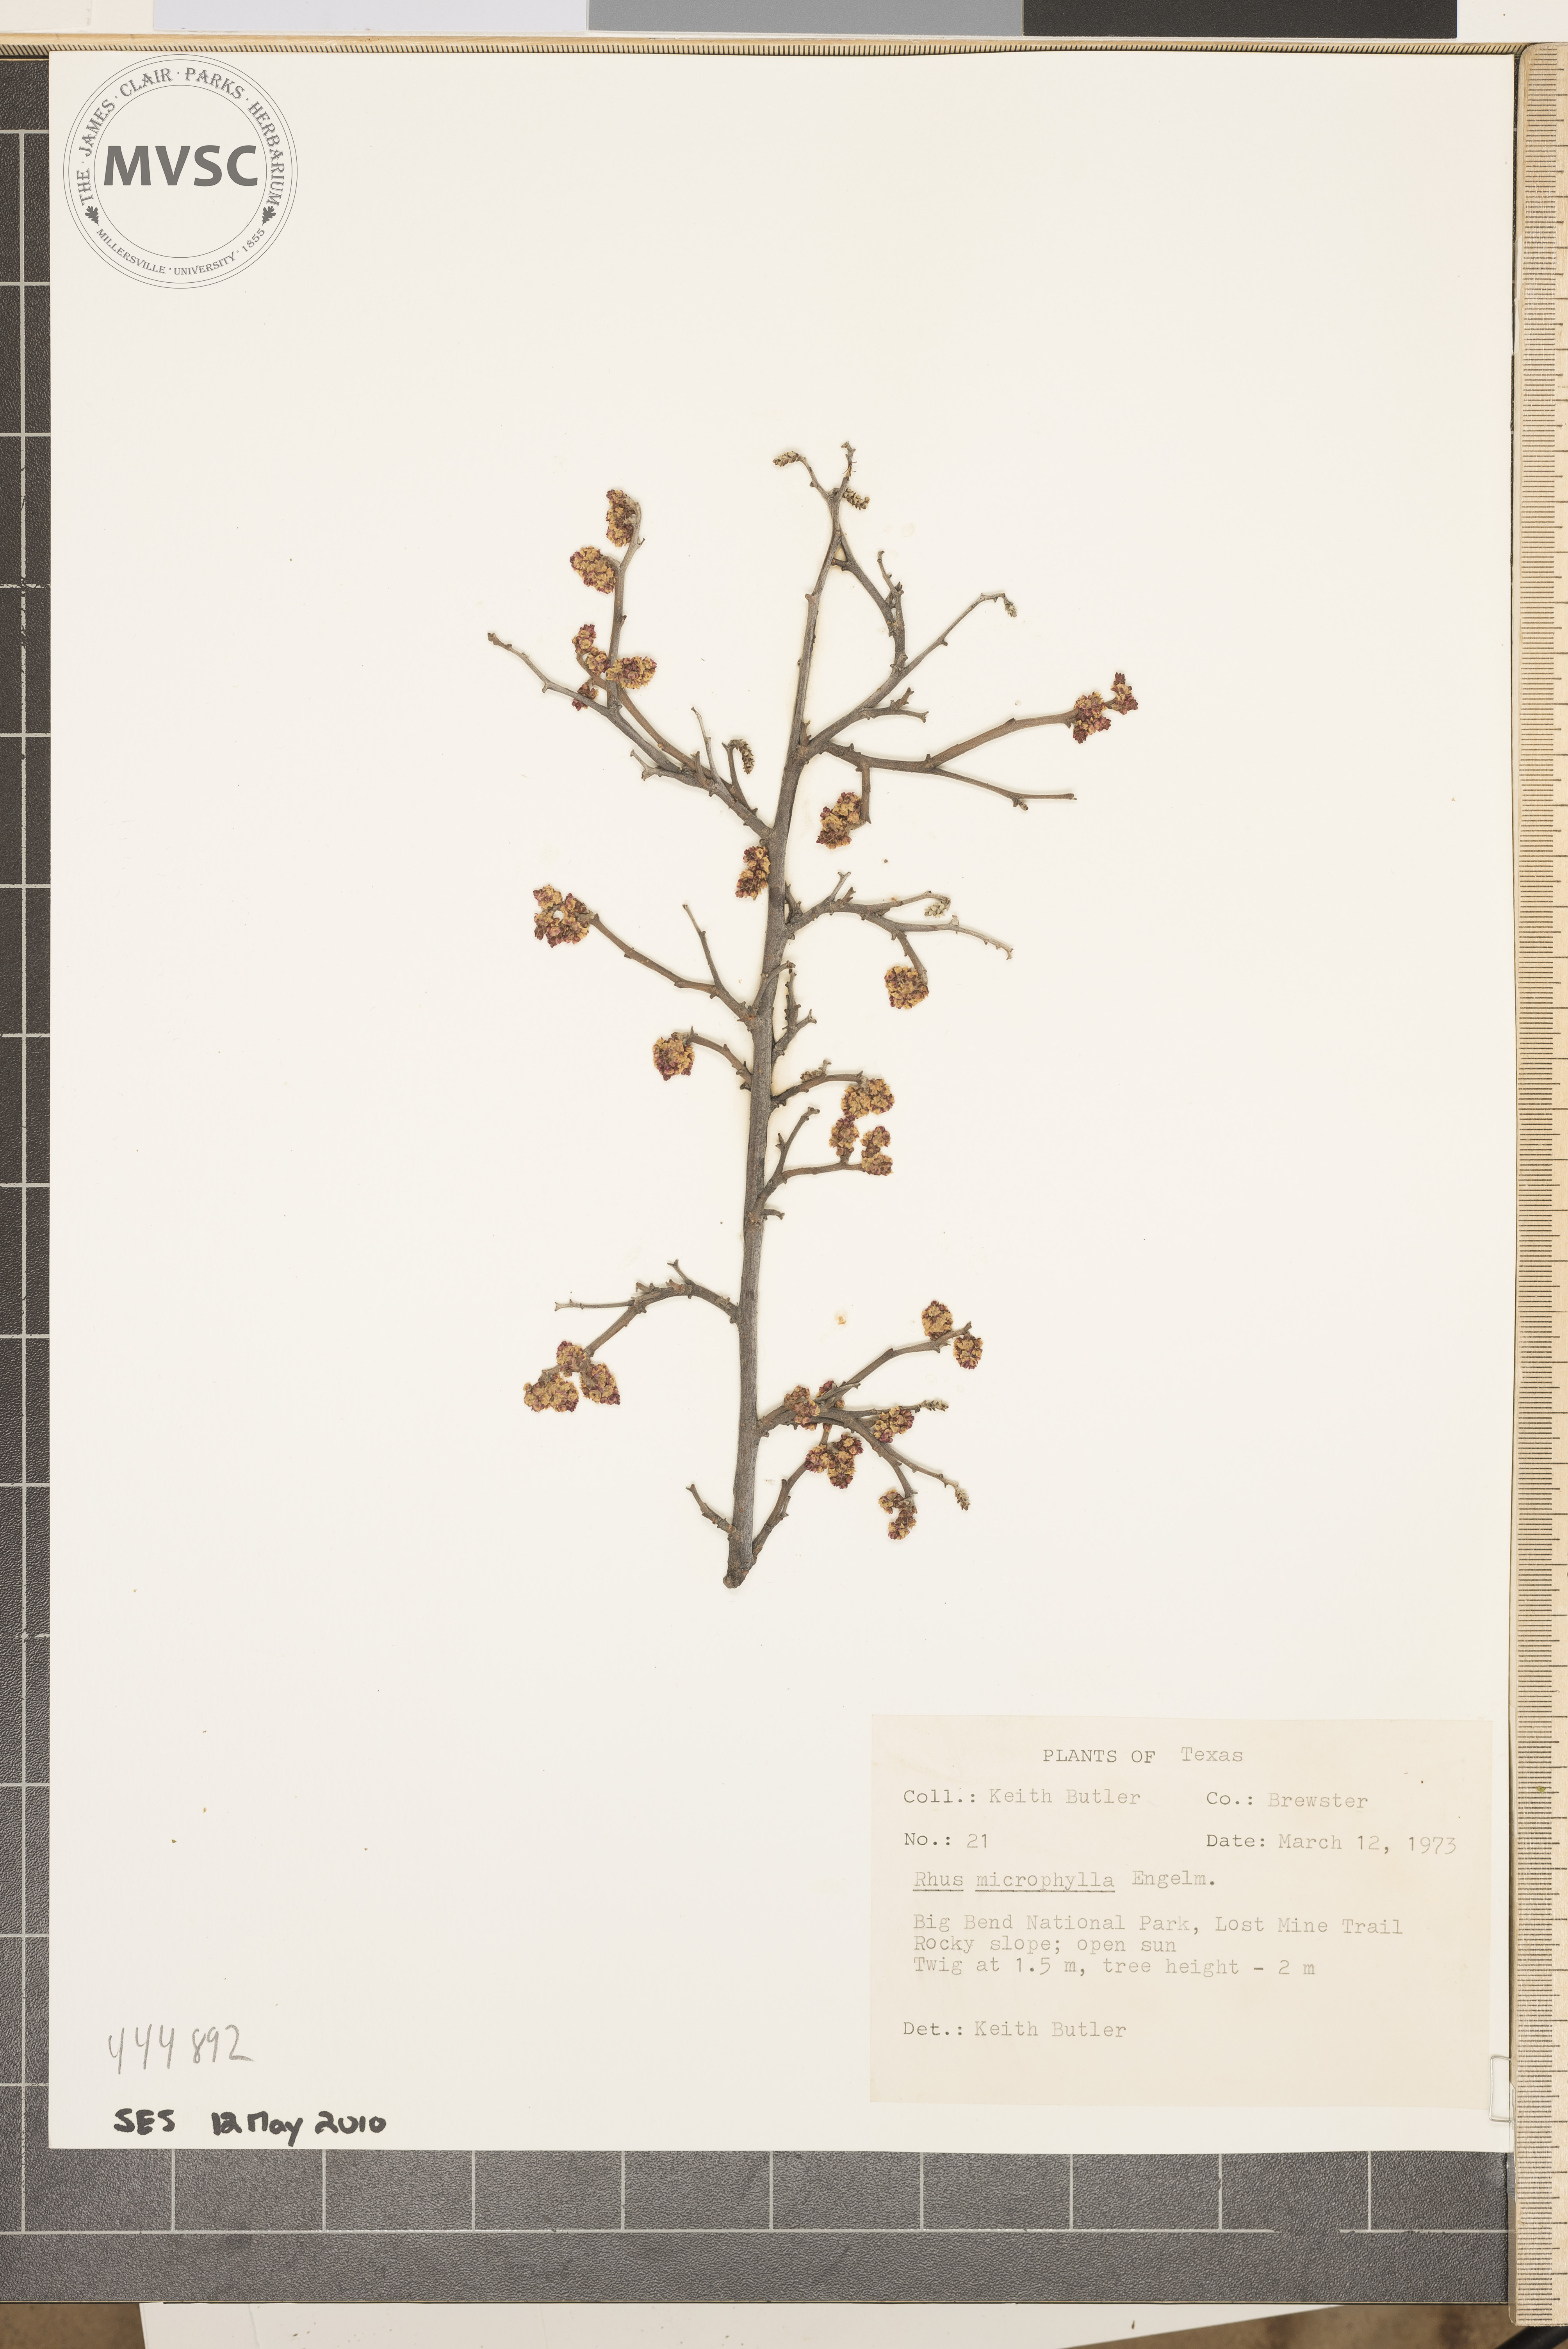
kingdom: Plantae
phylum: Tracheophyta
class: Magnoliopsida
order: Sapindales
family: Anacardiaceae
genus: Rhus
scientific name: Rhus microphylla
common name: Desert sumac
